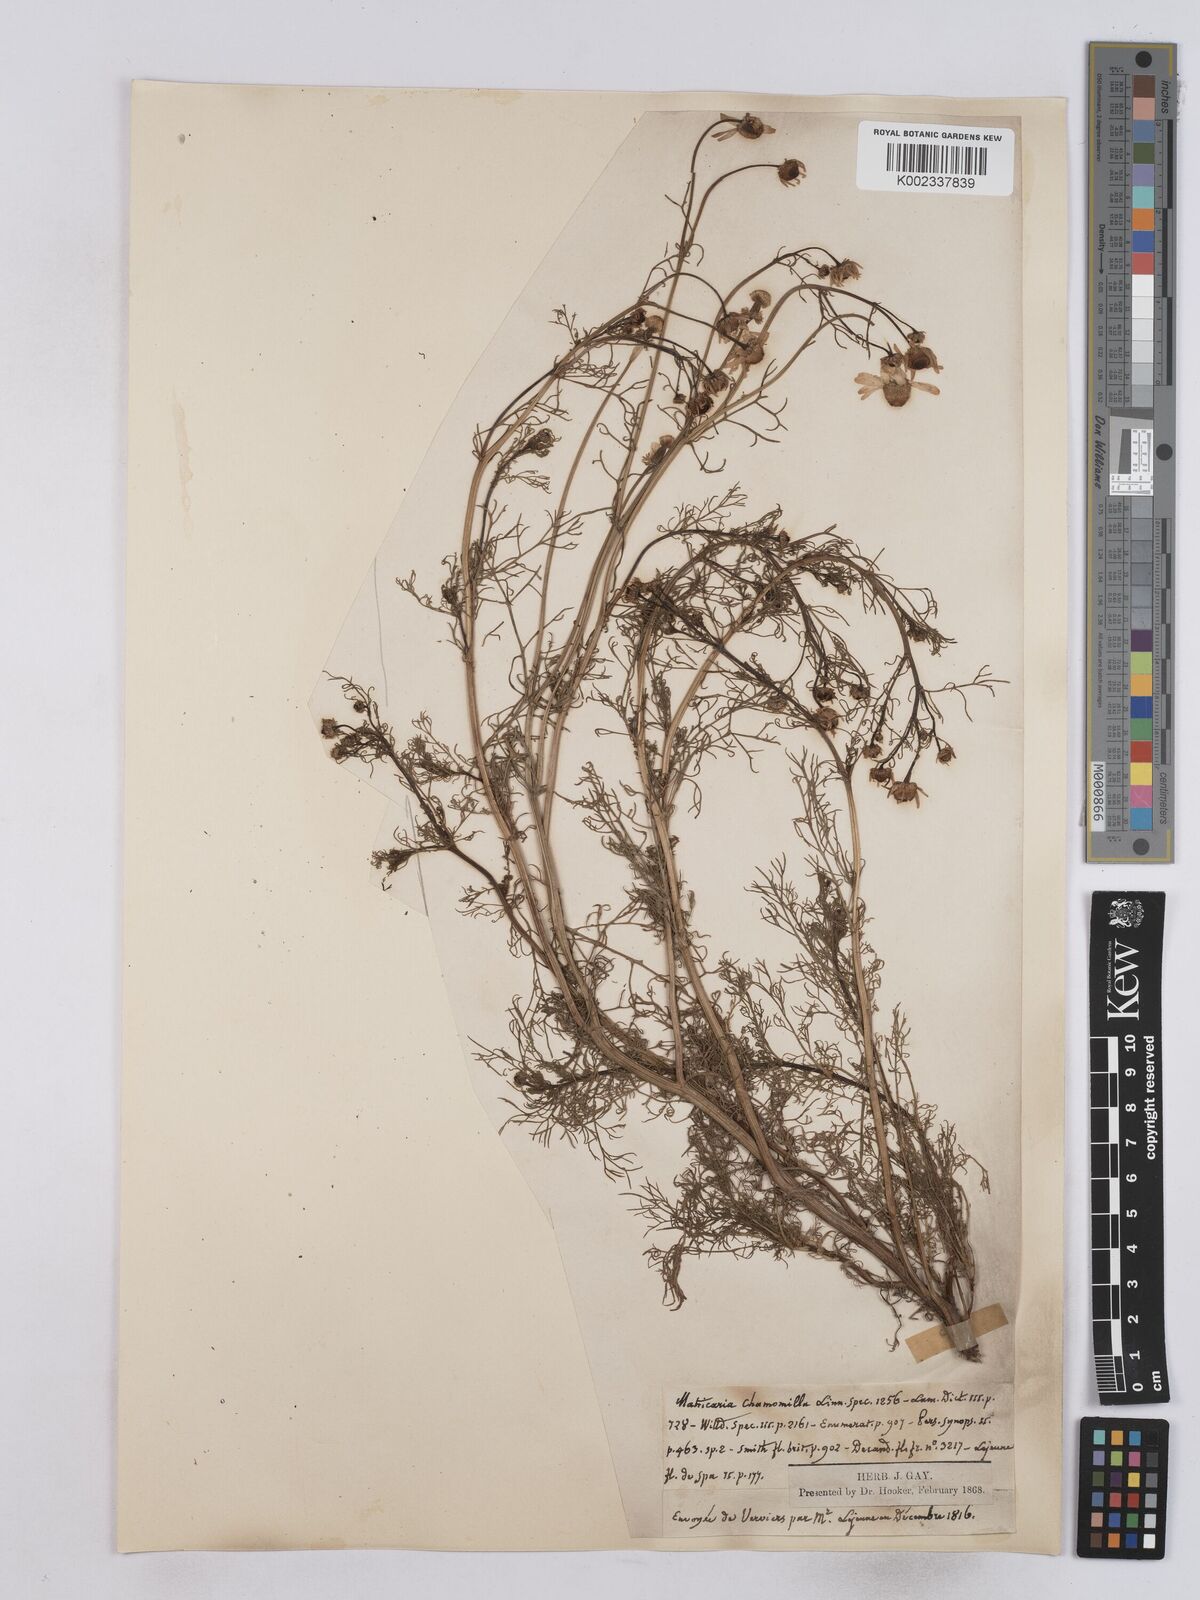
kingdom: Plantae
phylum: Tracheophyta
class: Magnoliopsida
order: Asterales
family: Asteraceae
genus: Matricaria
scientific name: Matricaria chamomilla
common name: Scented mayweed
